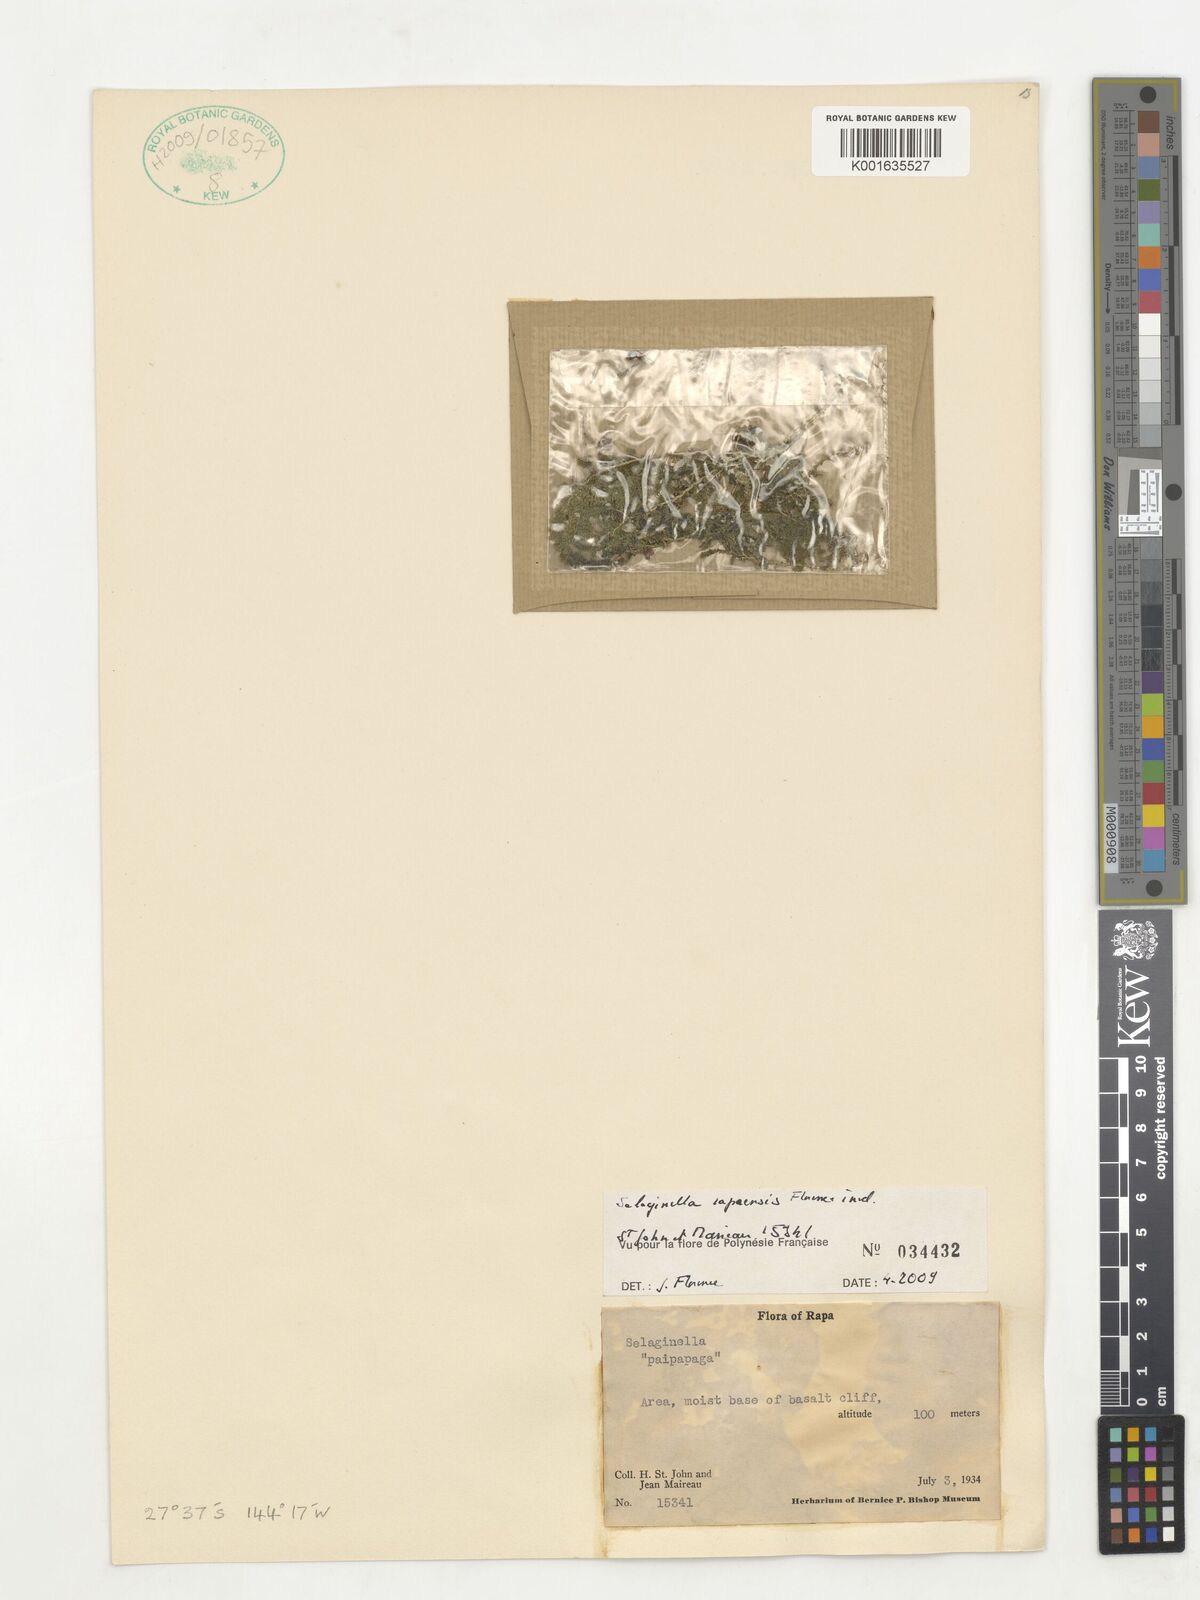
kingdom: Plantae
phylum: Tracheophyta
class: Lycopodiopsida
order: Selaginellales
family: Selaginellaceae
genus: Selaginella
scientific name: Selaginella
